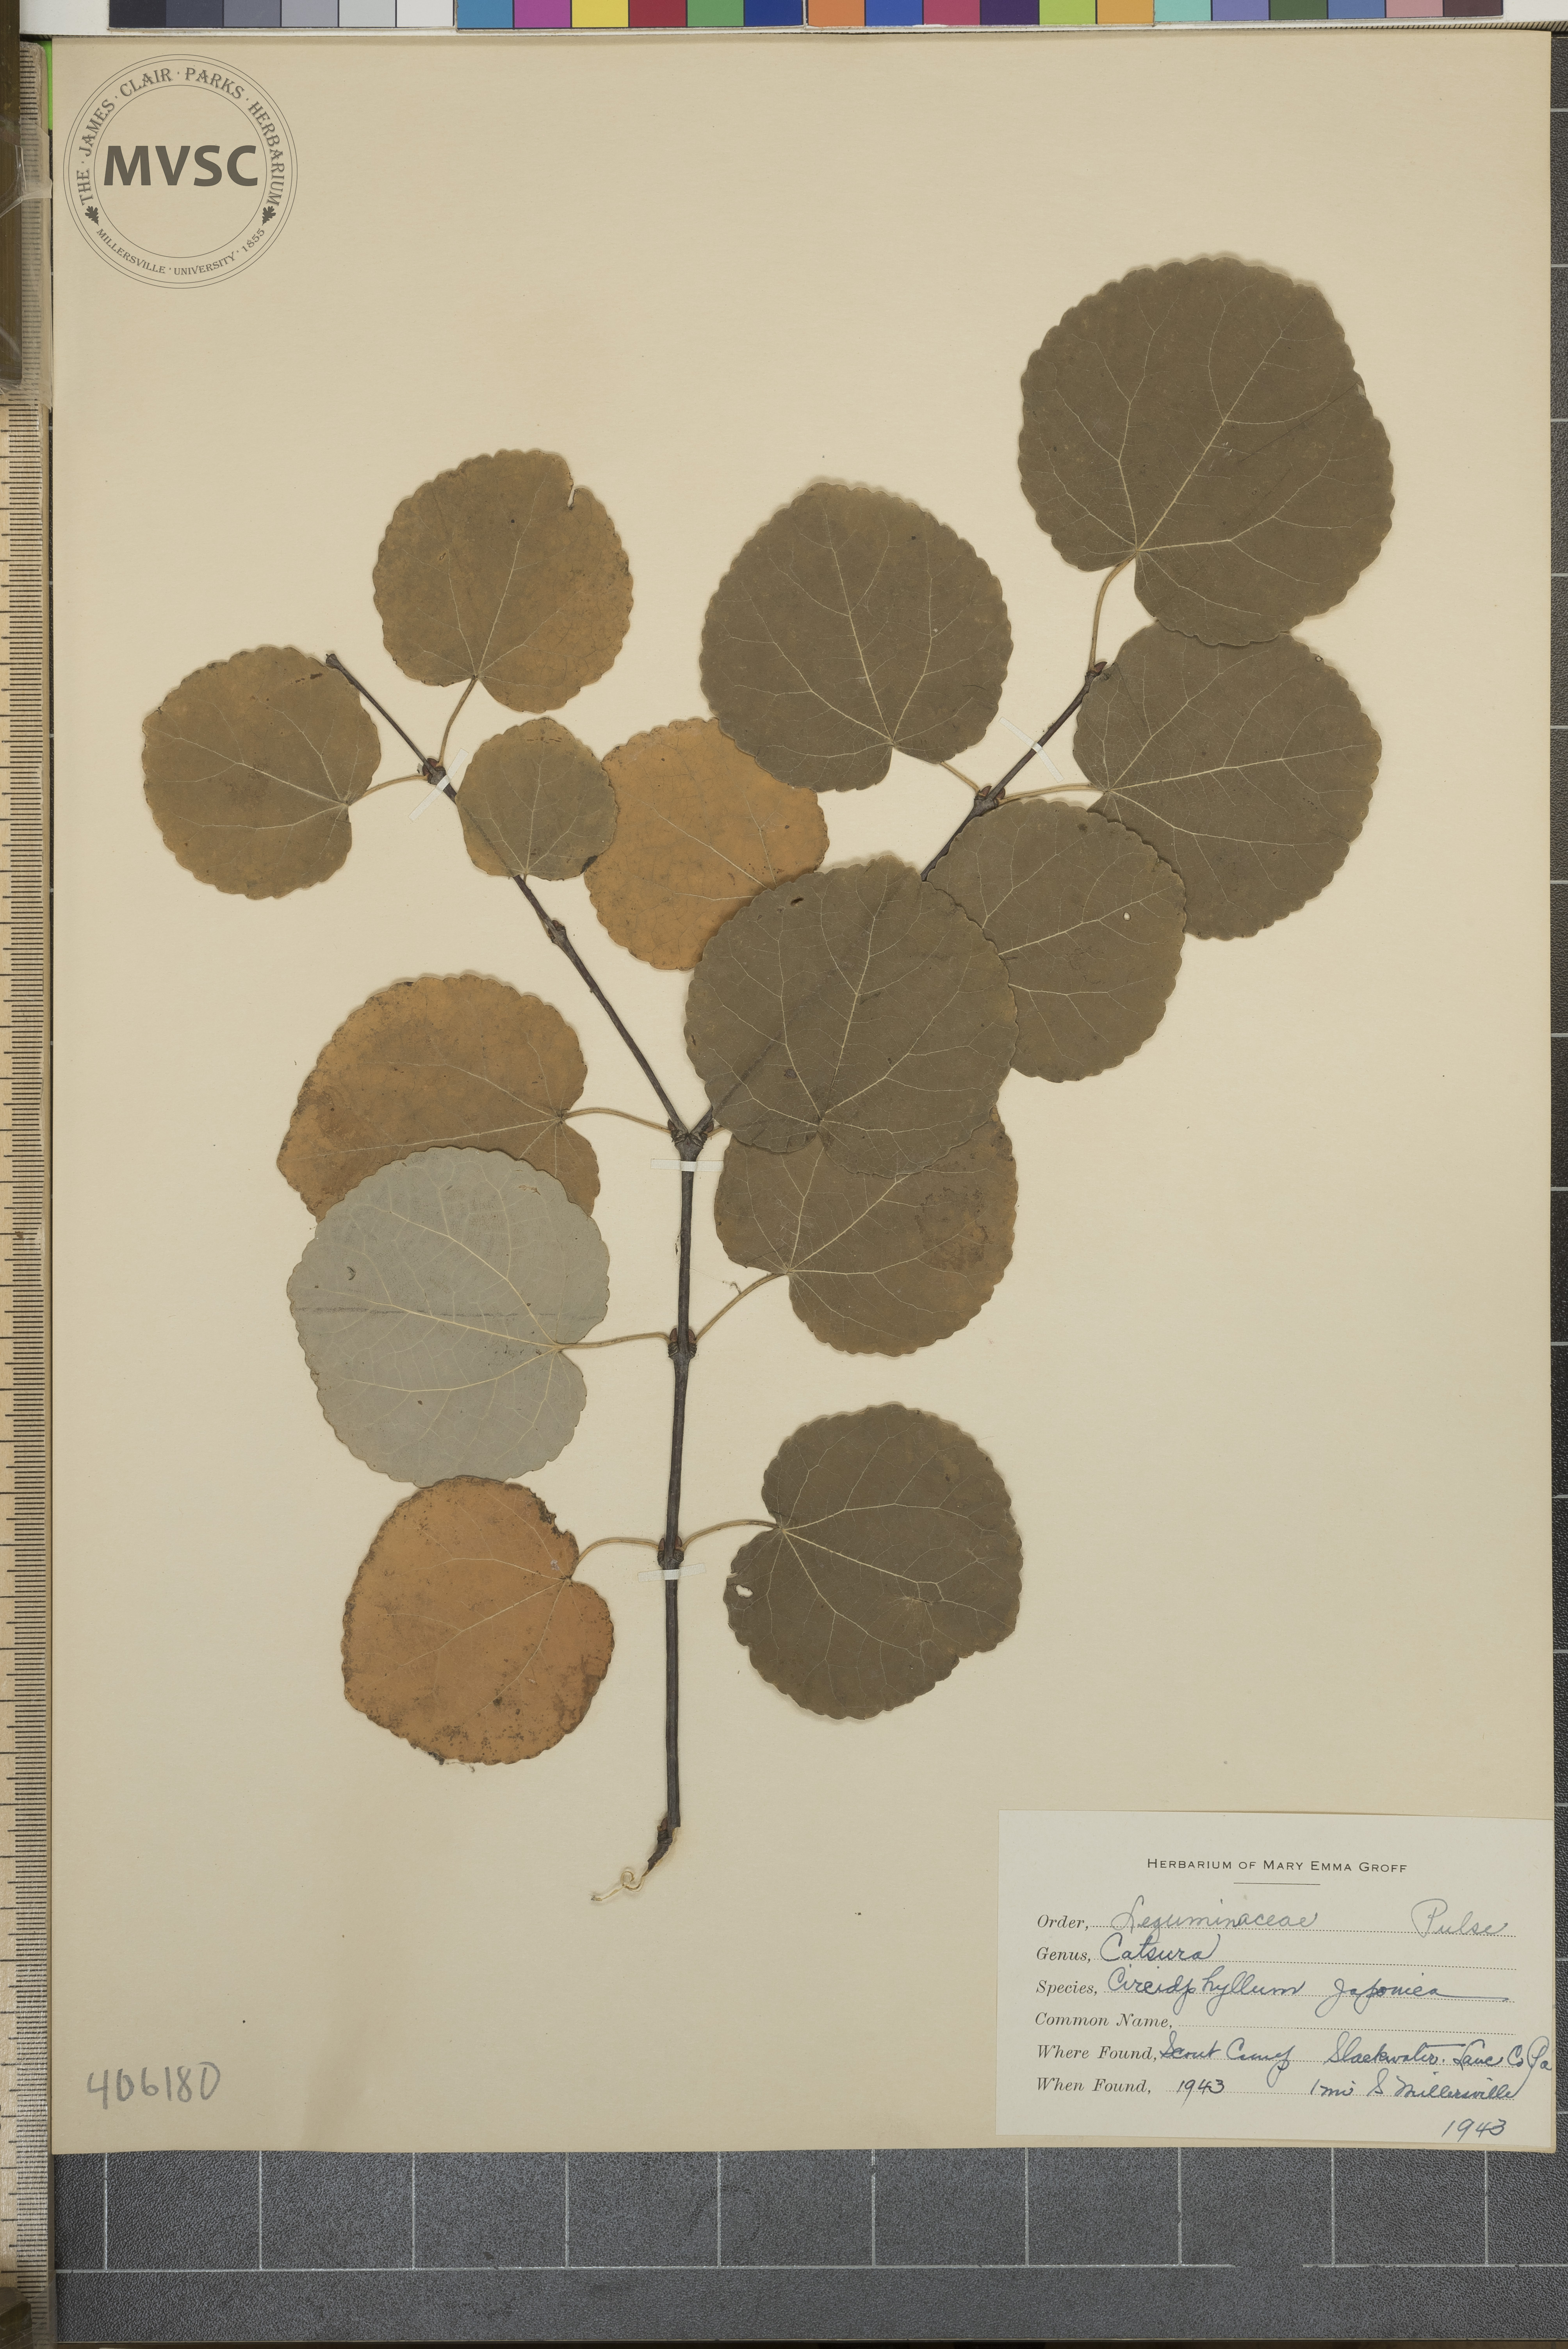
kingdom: Plantae
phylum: Tracheophyta
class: Magnoliopsida
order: Saxifragales
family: Cercidiphyllaceae
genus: Cercidiphyllum
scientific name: Cercidiphyllum japonicum
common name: Katsura tree
